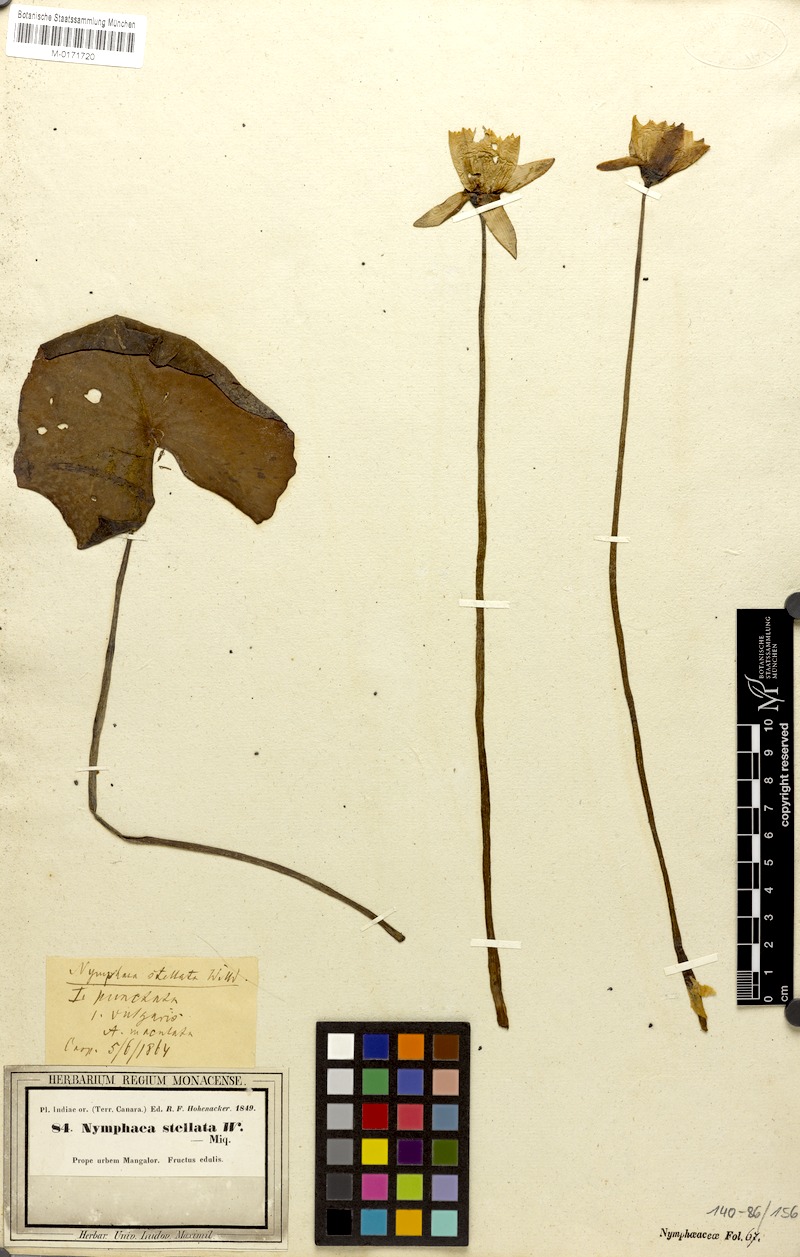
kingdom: Plantae
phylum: Tracheophyta
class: Magnoliopsida
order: Nymphaeales
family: Nymphaeaceae
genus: Nymphaea
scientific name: Nymphaea nouchali
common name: Blue lotus
